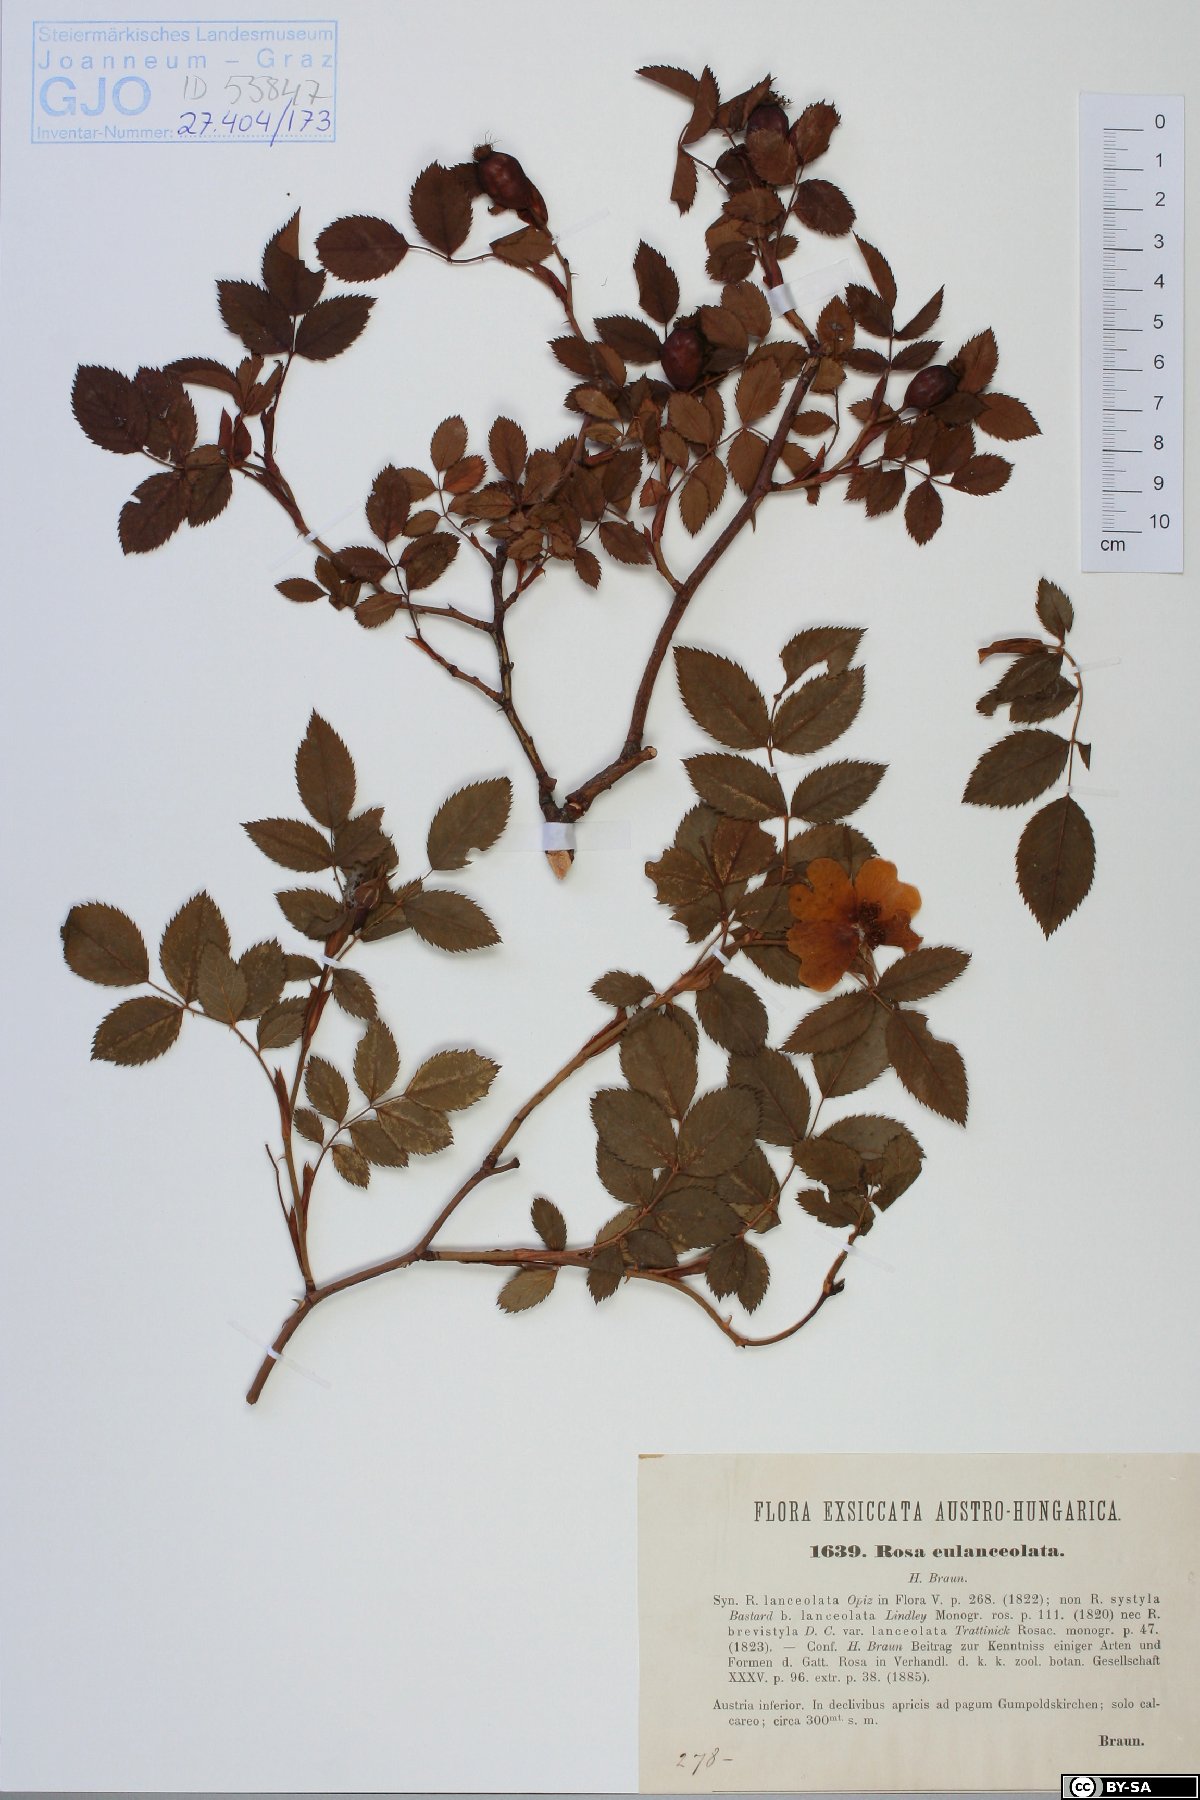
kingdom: Plantae
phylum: Tracheophyta
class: Magnoliopsida
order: Rosales
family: Rosaceae
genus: Rosa
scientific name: Rosa corymbifera
